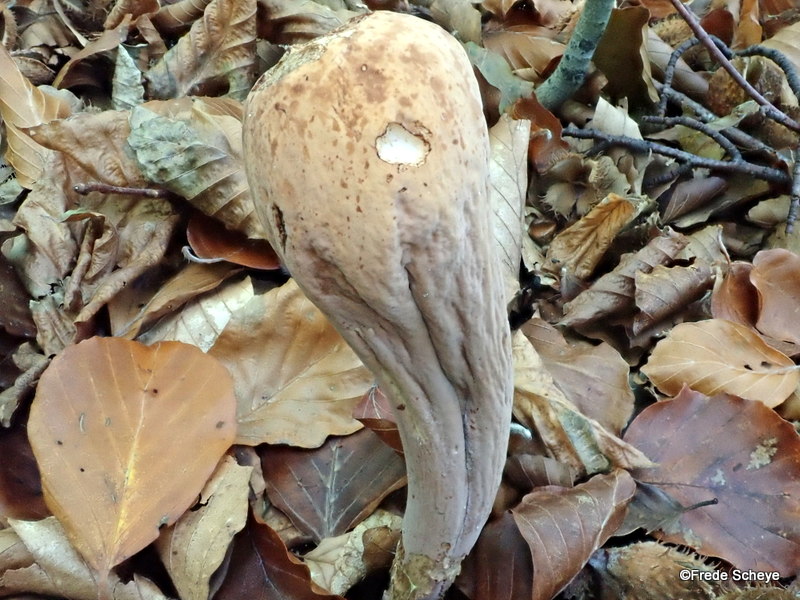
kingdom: Fungi
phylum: Basidiomycota
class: Agaricomycetes
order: Gomphales
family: Clavariadelphaceae
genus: Clavariadelphus
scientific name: Clavariadelphus pistillaris
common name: herkules-kæmpekølle
